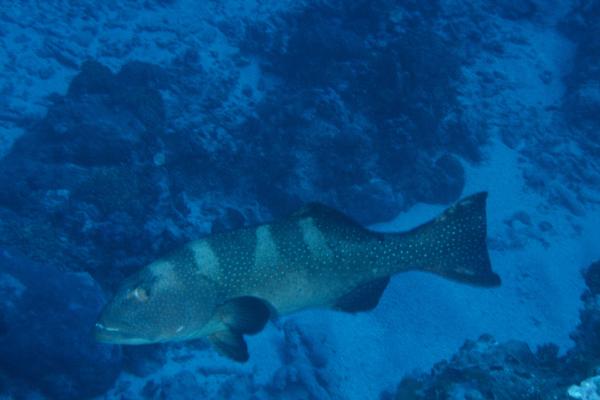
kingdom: Animalia
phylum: Chordata
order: Perciformes
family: Serranidae
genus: Plectropomus
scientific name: Plectropomus laevis
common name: Chinese footballer
